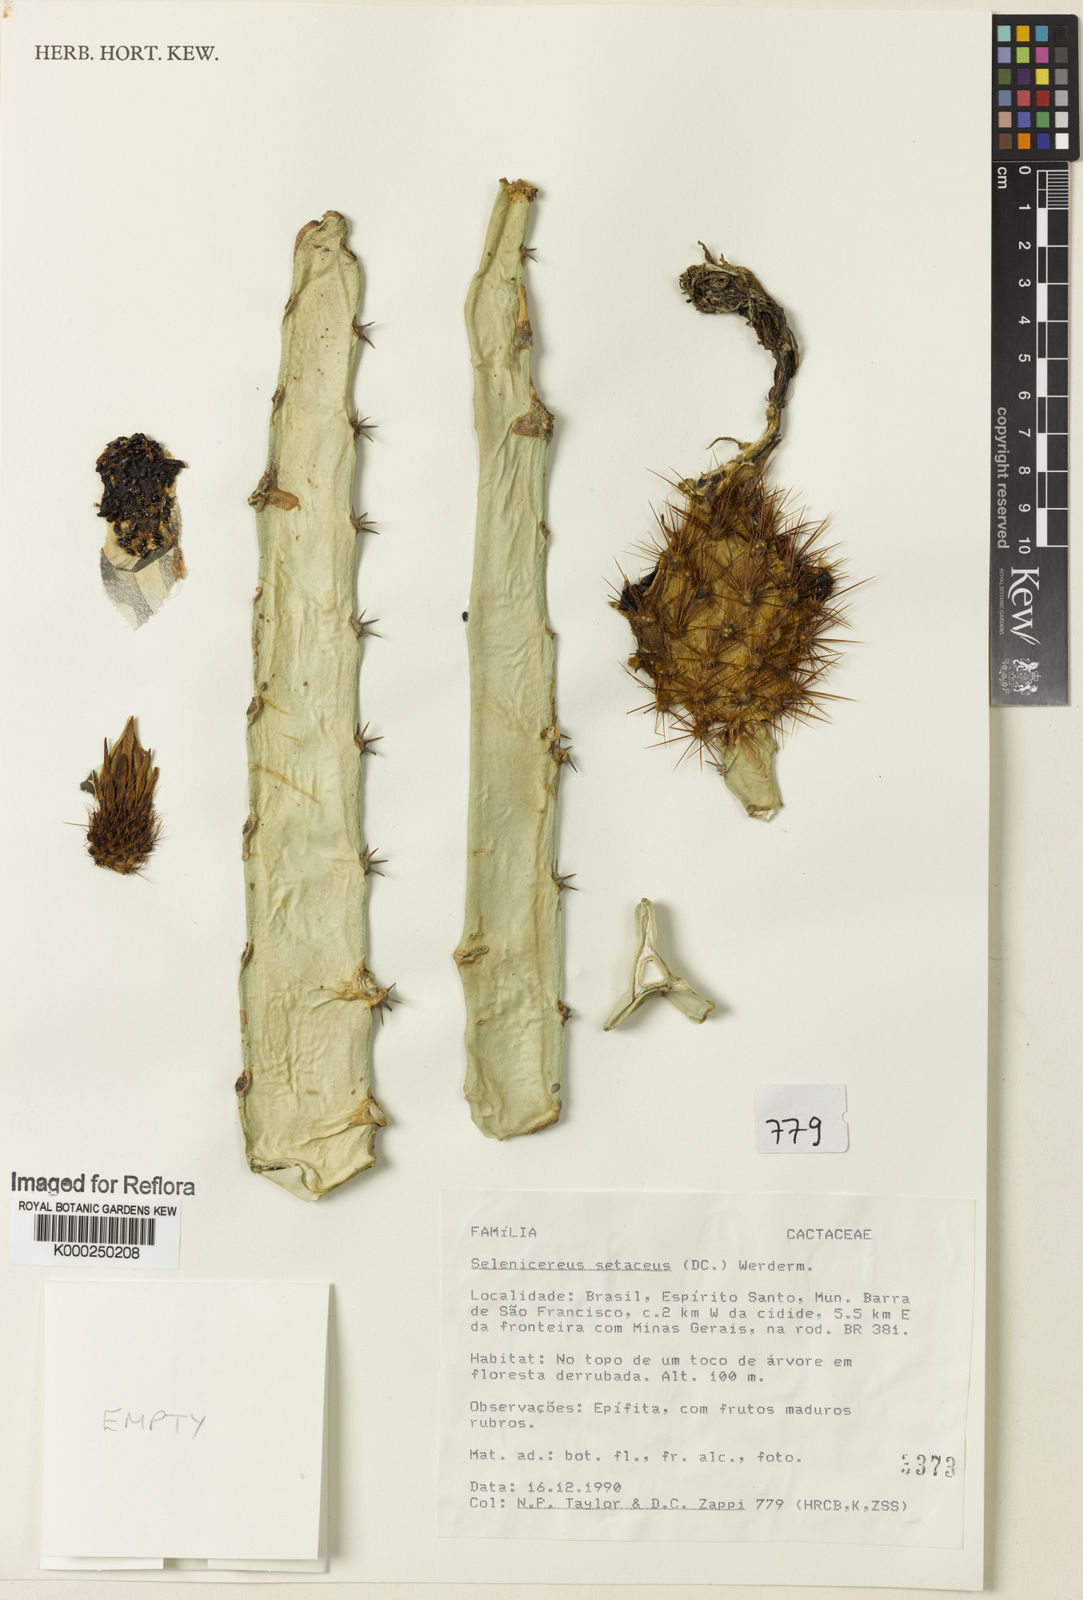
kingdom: Plantae
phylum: Tracheophyta
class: Magnoliopsida
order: Caryophyllales
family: Cactaceae
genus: Selenicereus
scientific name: Selenicereus
